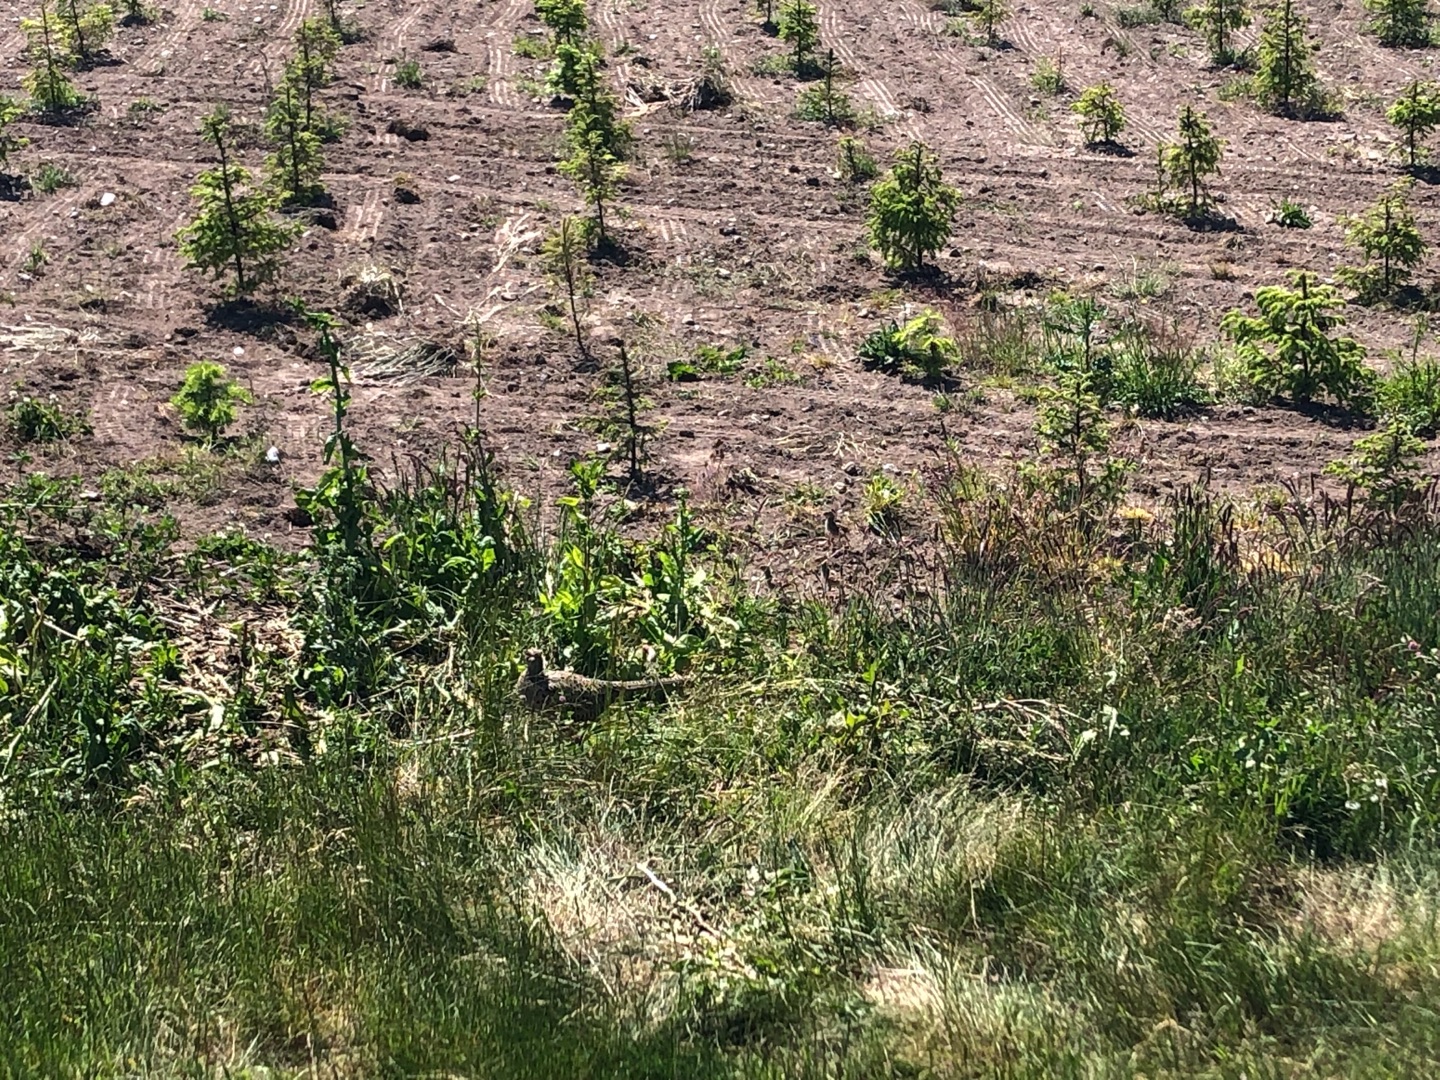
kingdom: Animalia
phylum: Chordata
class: Aves
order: Galliformes
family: Phasianidae
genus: Phasianus
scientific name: Phasianus colchicus
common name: Fasan
